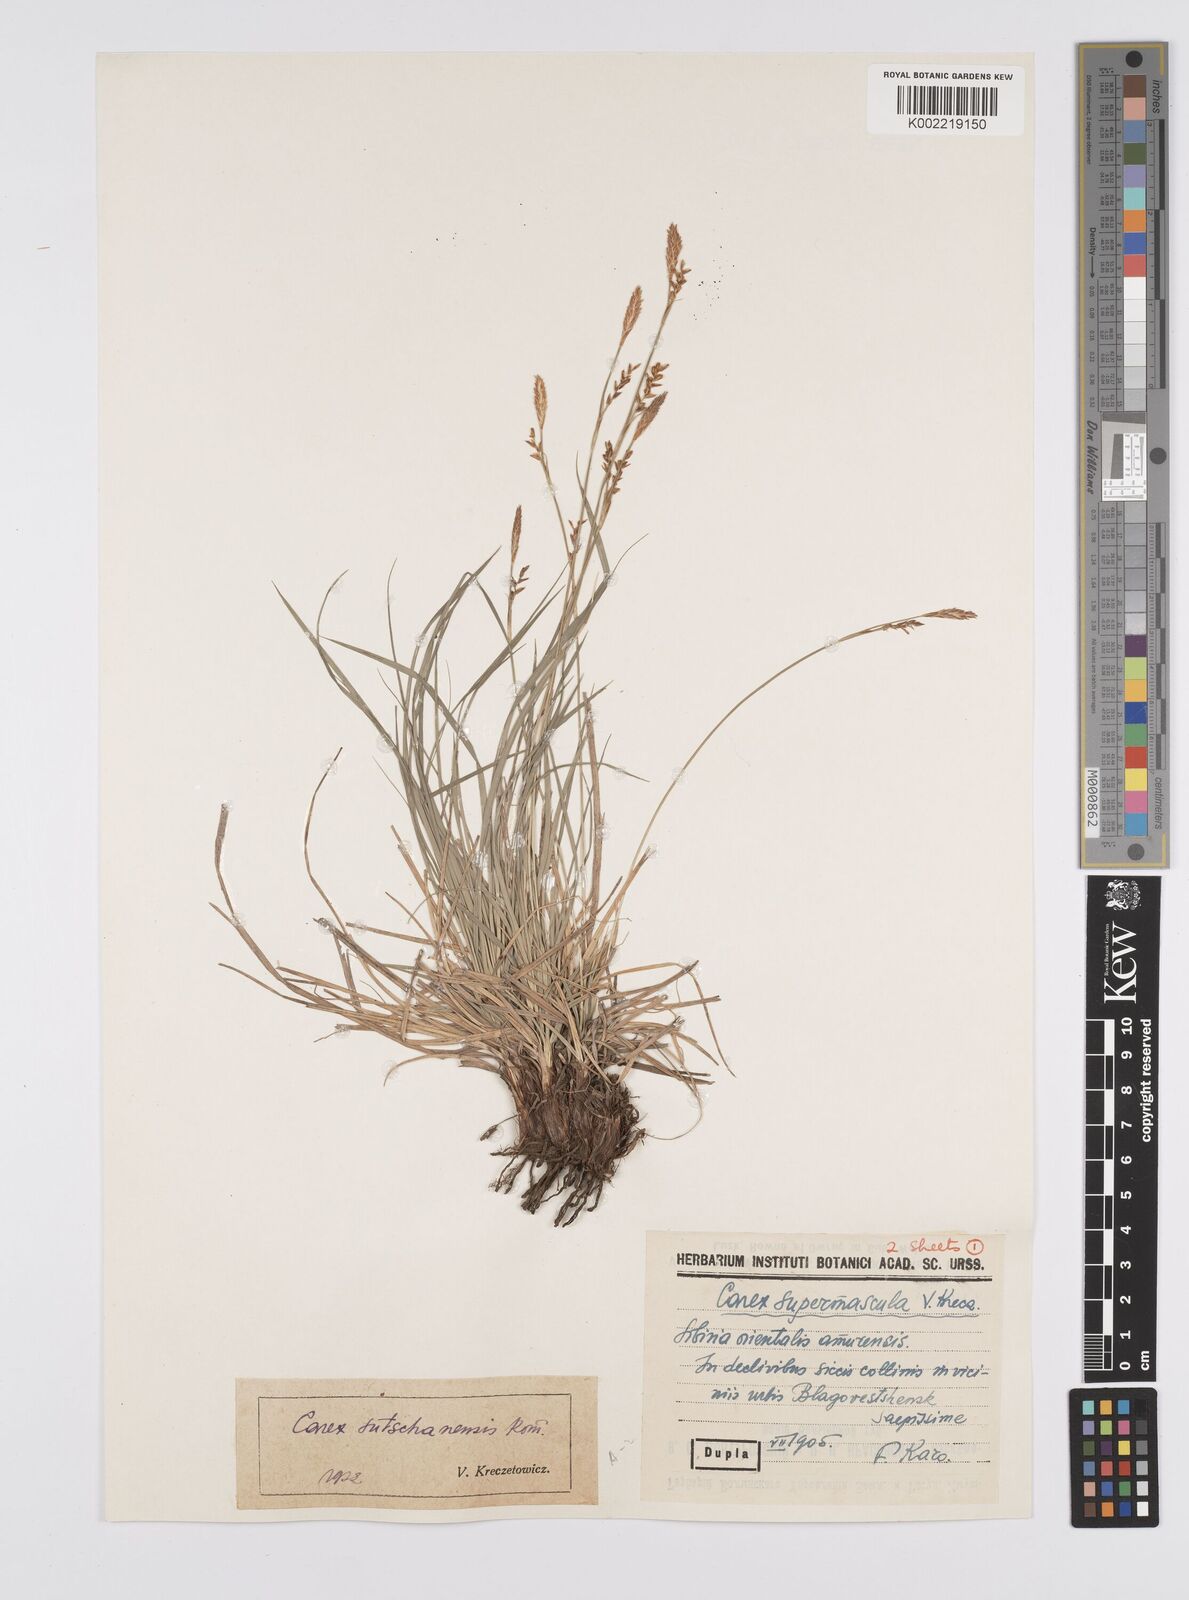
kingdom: Plantae
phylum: Tracheophyta
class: Liliopsida
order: Poales
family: Cyperaceae
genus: Carex
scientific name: Carex pediformis
